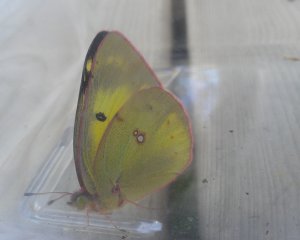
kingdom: Animalia
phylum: Arthropoda
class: Insecta
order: Lepidoptera
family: Pieridae
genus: Colias
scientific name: Colias philodice
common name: Clouded Sulphur
